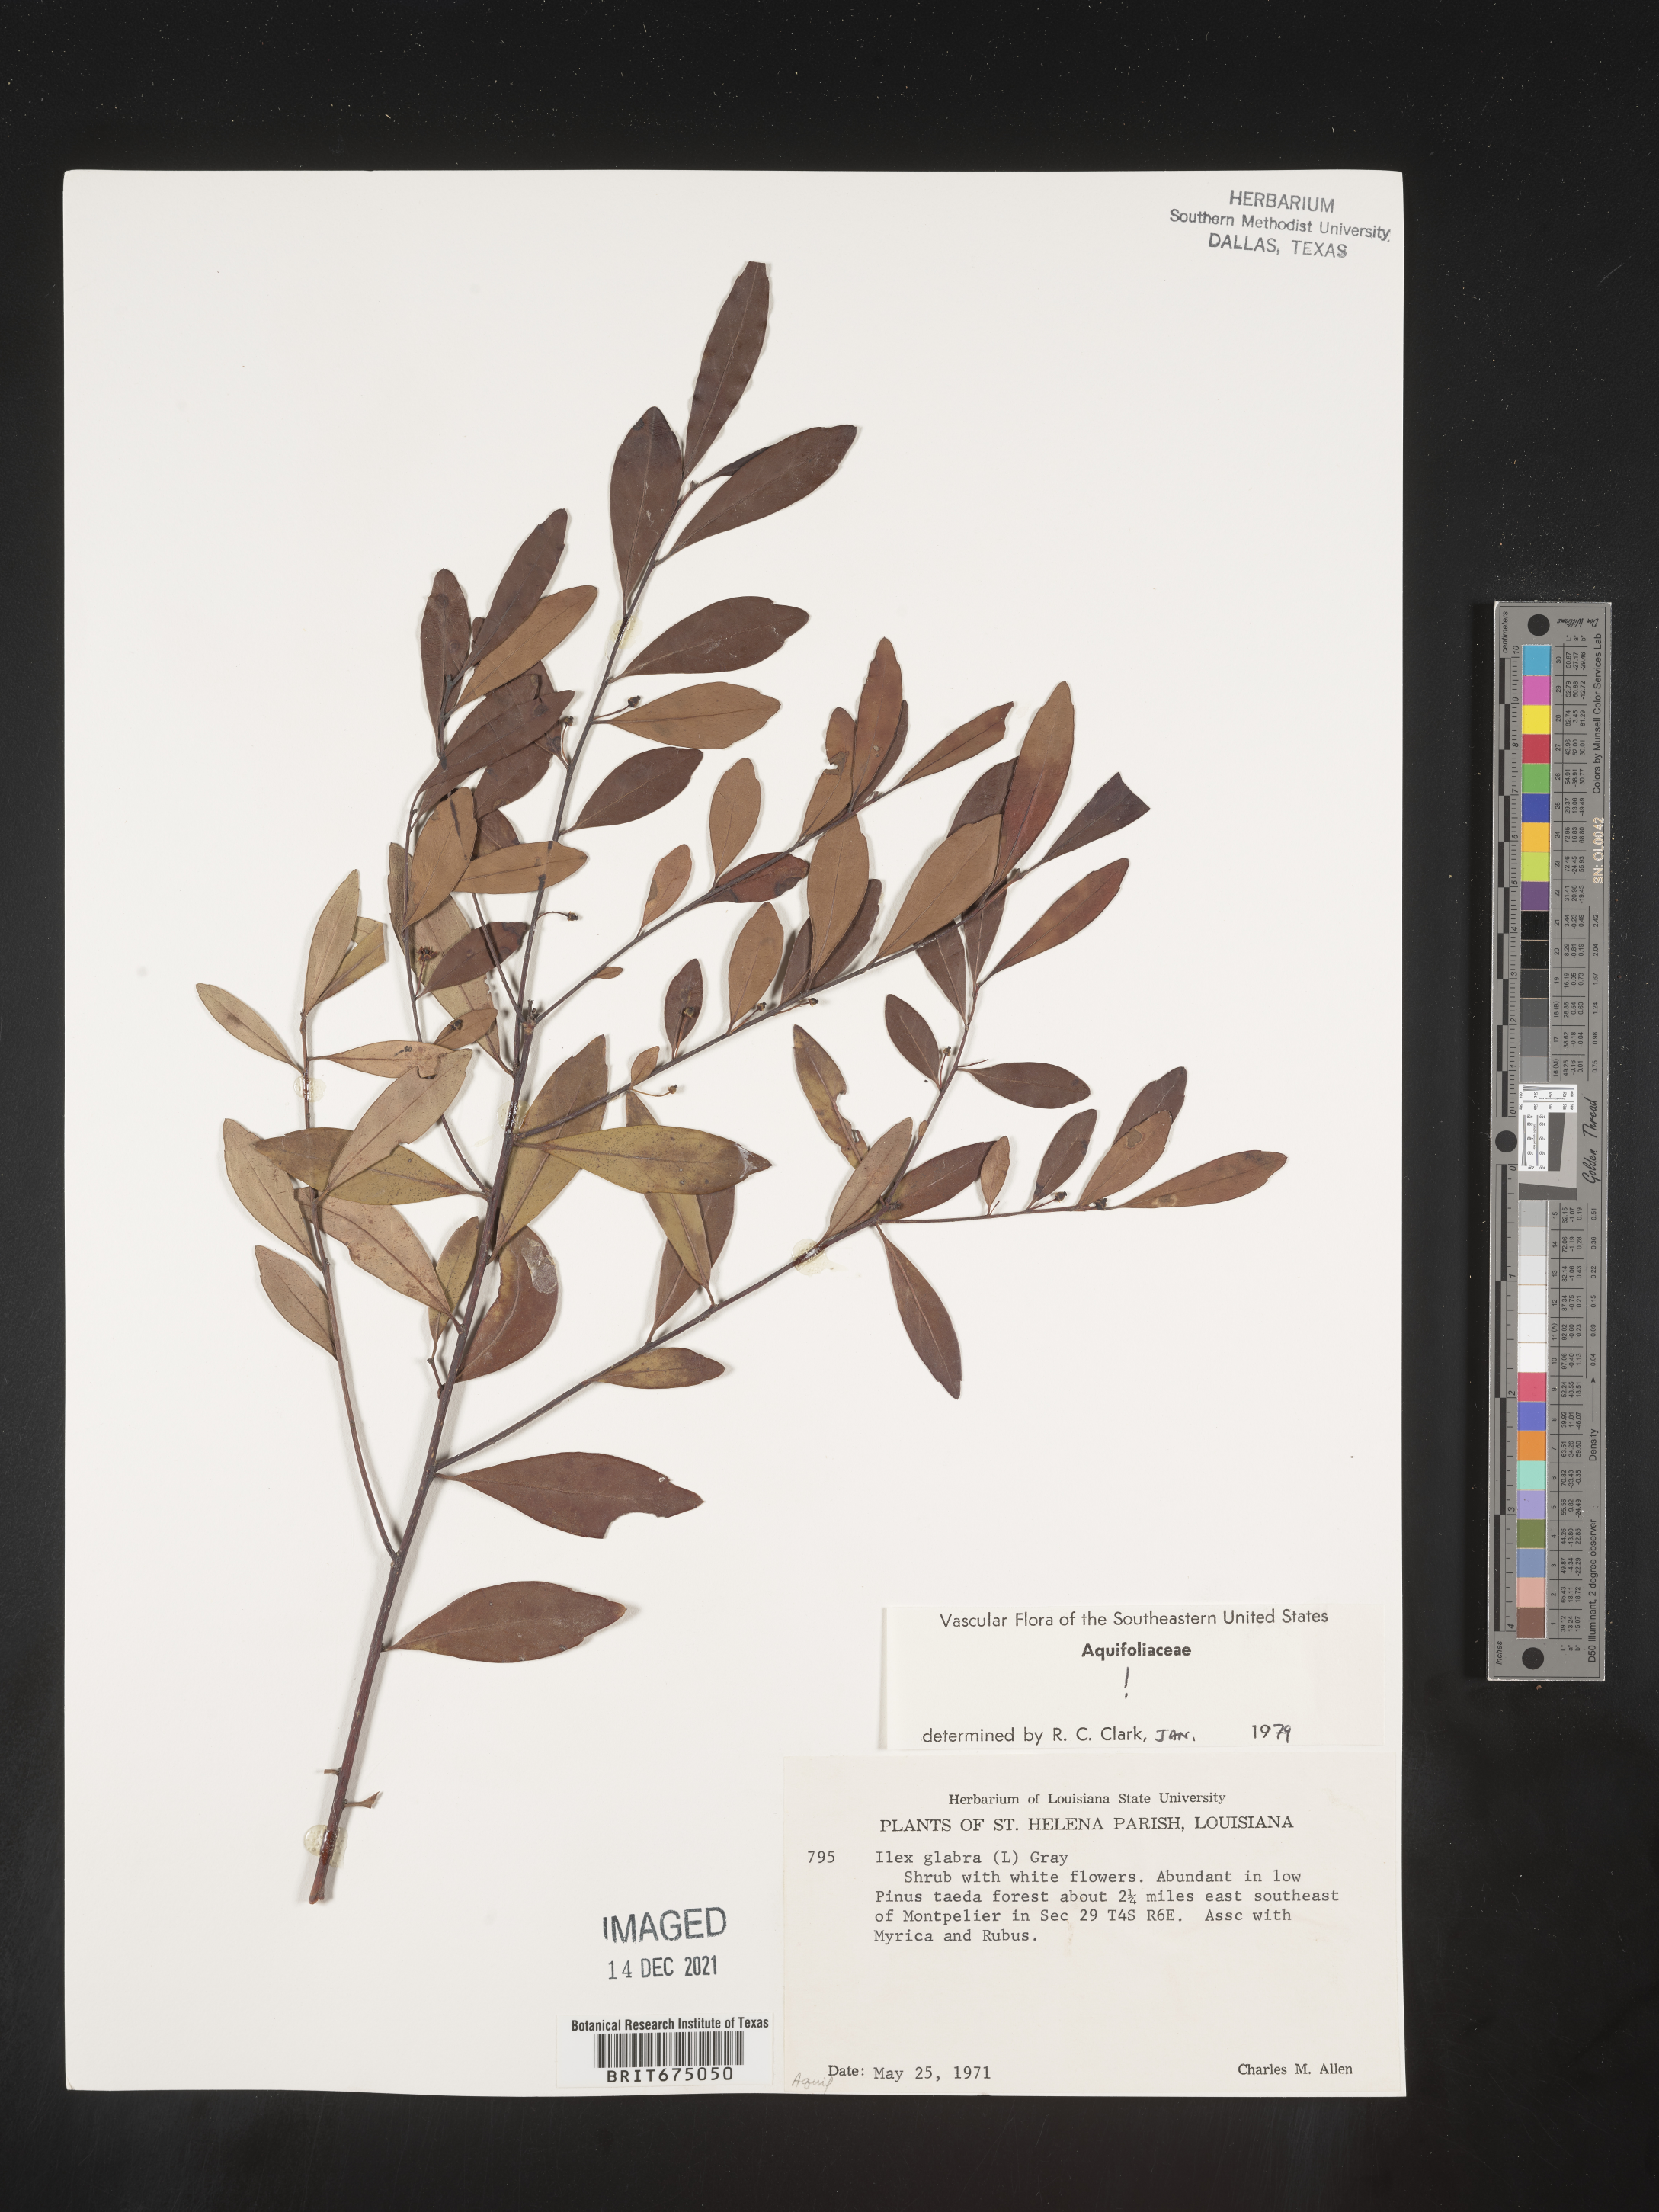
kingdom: Plantae
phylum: Tracheophyta
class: Magnoliopsida
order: Aquifoliales
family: Aquifoliaceae
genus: Ilex
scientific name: Ilex glabra
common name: Bitter gallberry
